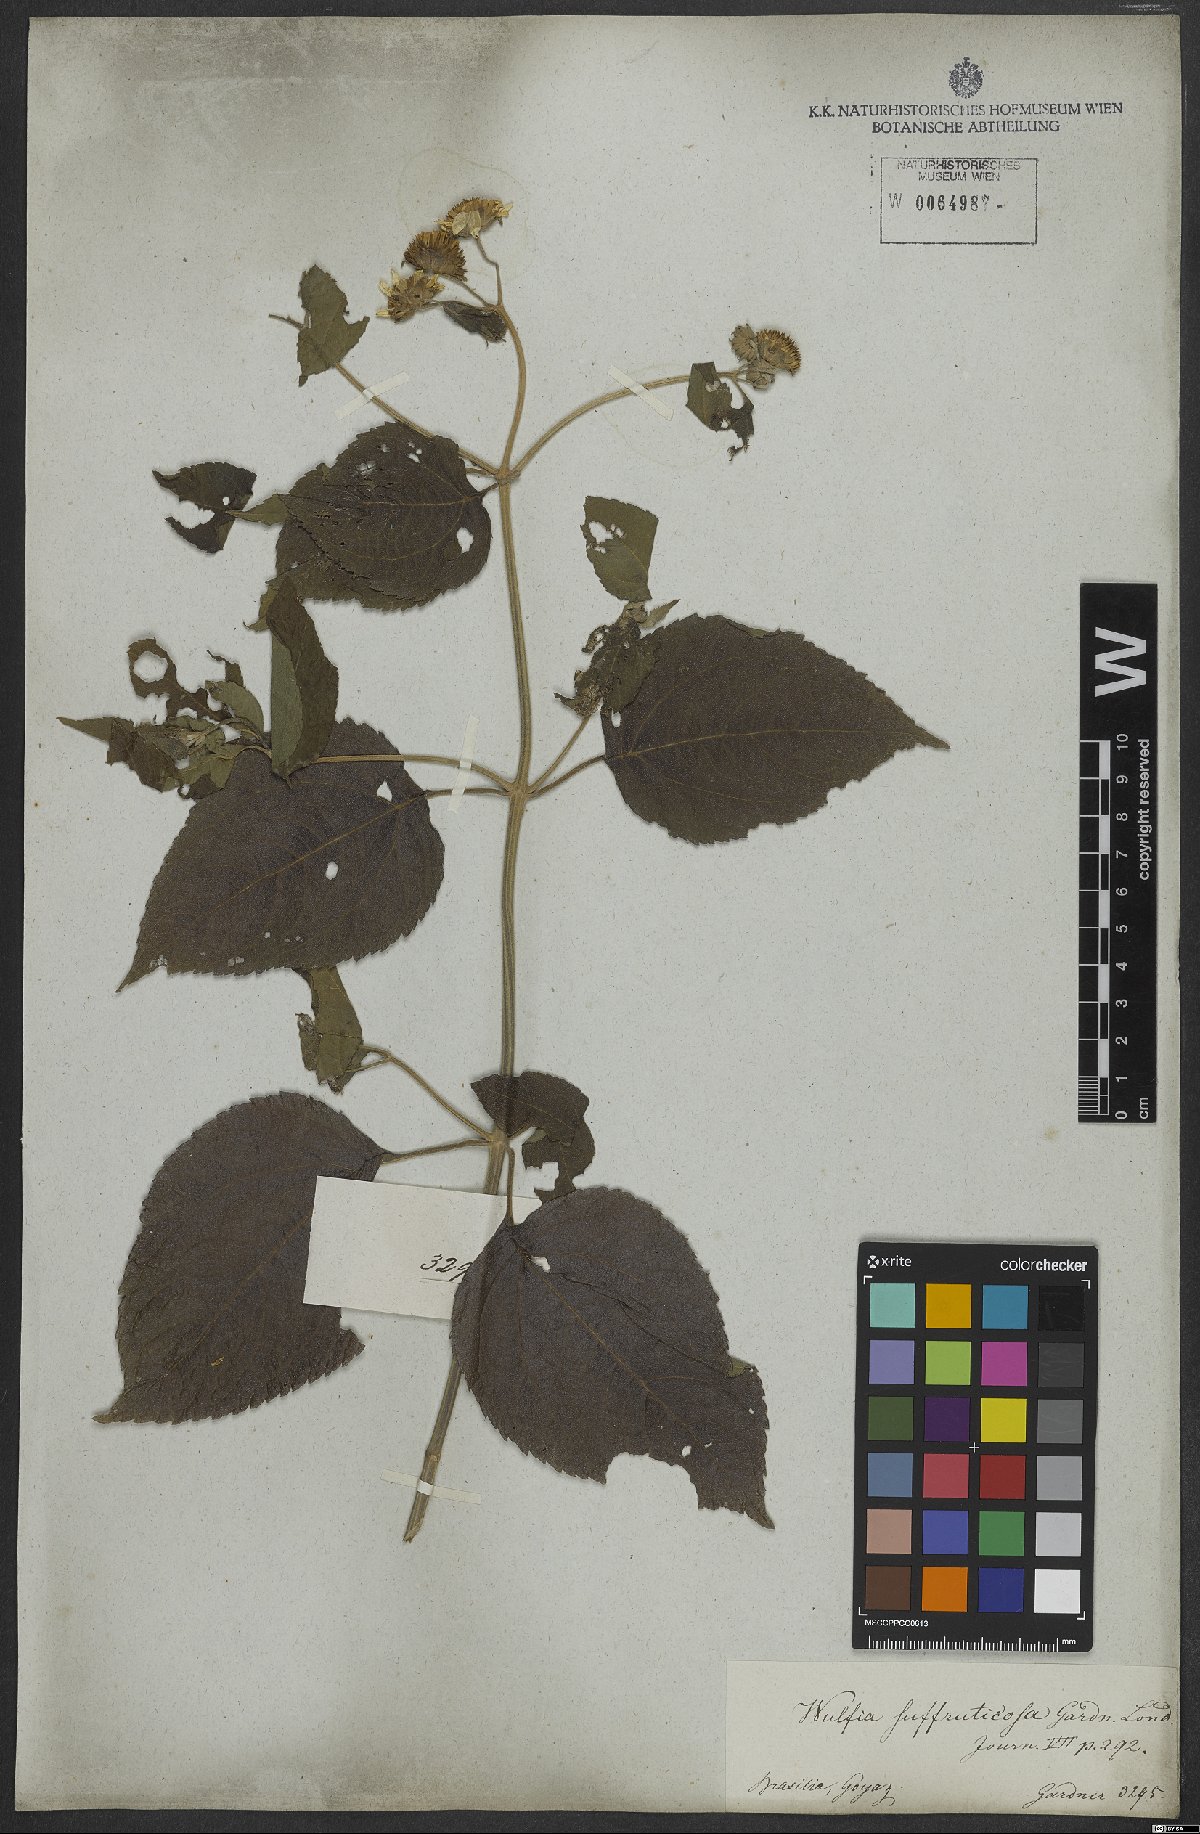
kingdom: Plantae
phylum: Tracheophyta
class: Magnoliopsida
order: Asterales
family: Asteraceae
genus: Tilesia
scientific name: Tilesia baccata
